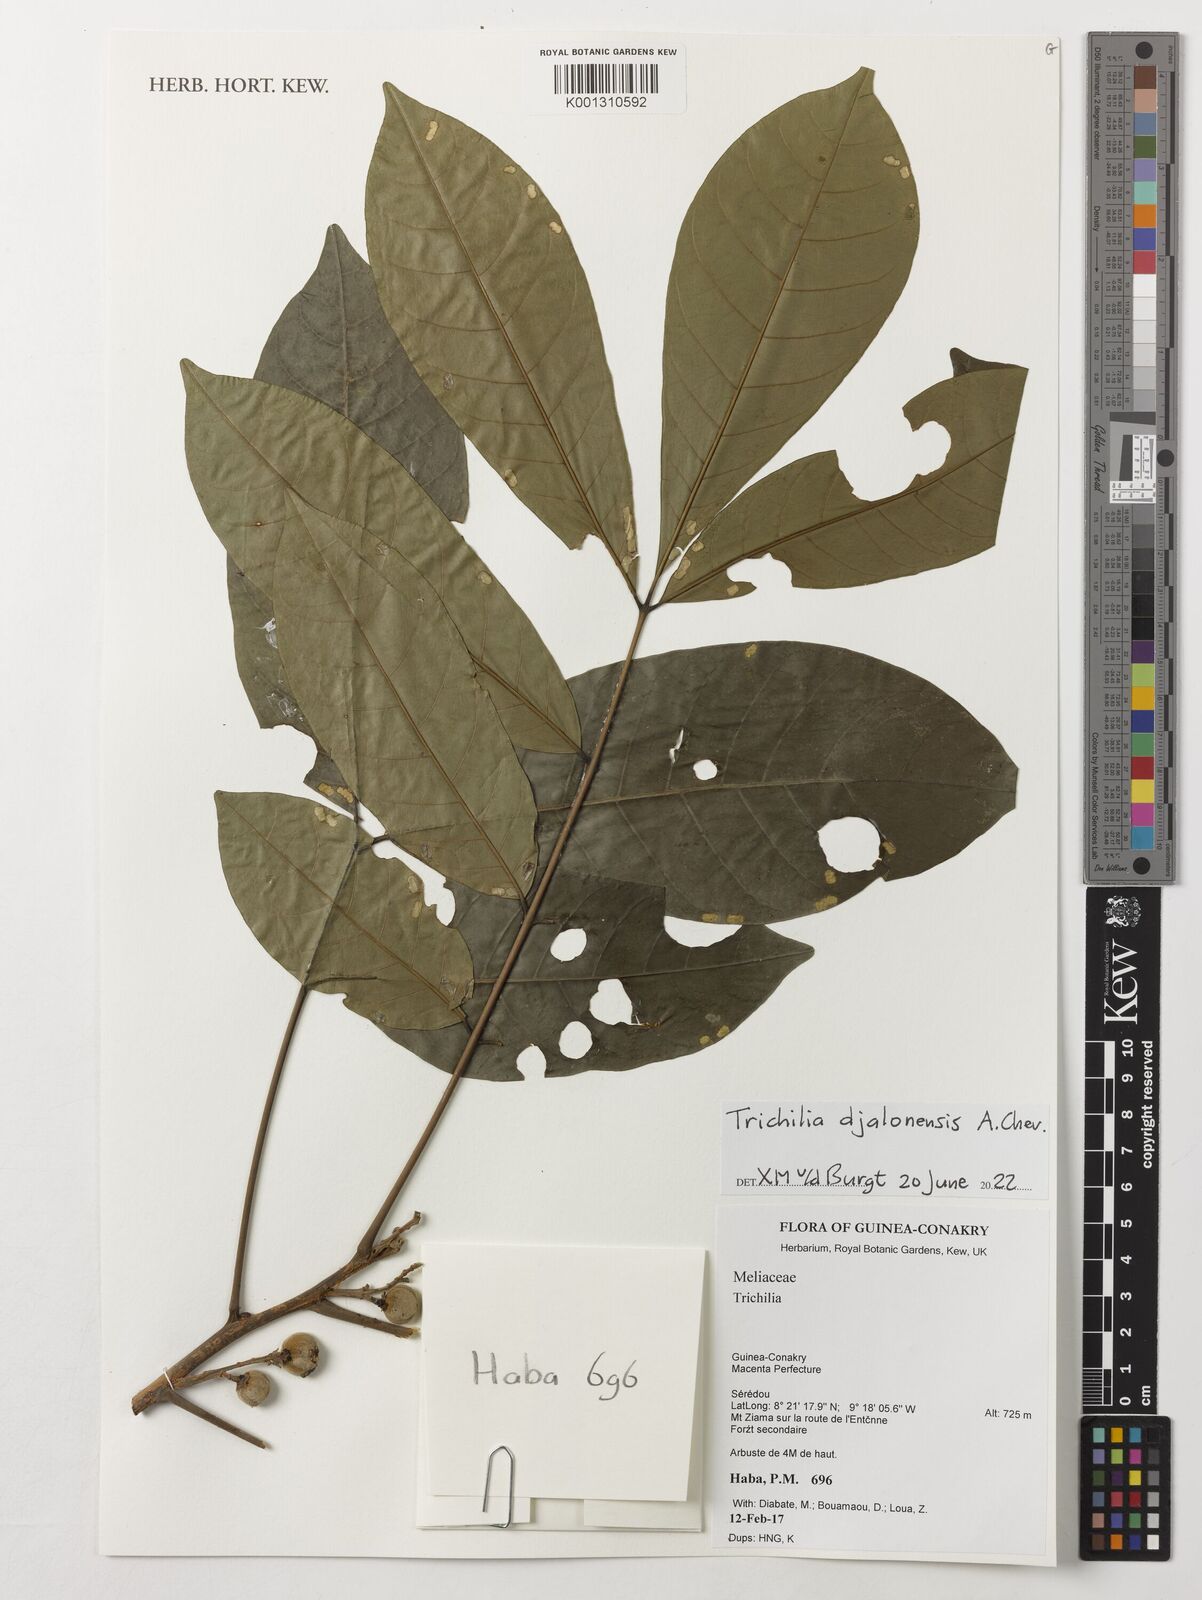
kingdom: Plantae
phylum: Tracheophyta
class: Magnoliopsida
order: Sapindales
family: Meliaceae
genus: Trichilia
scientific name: Trichilia
